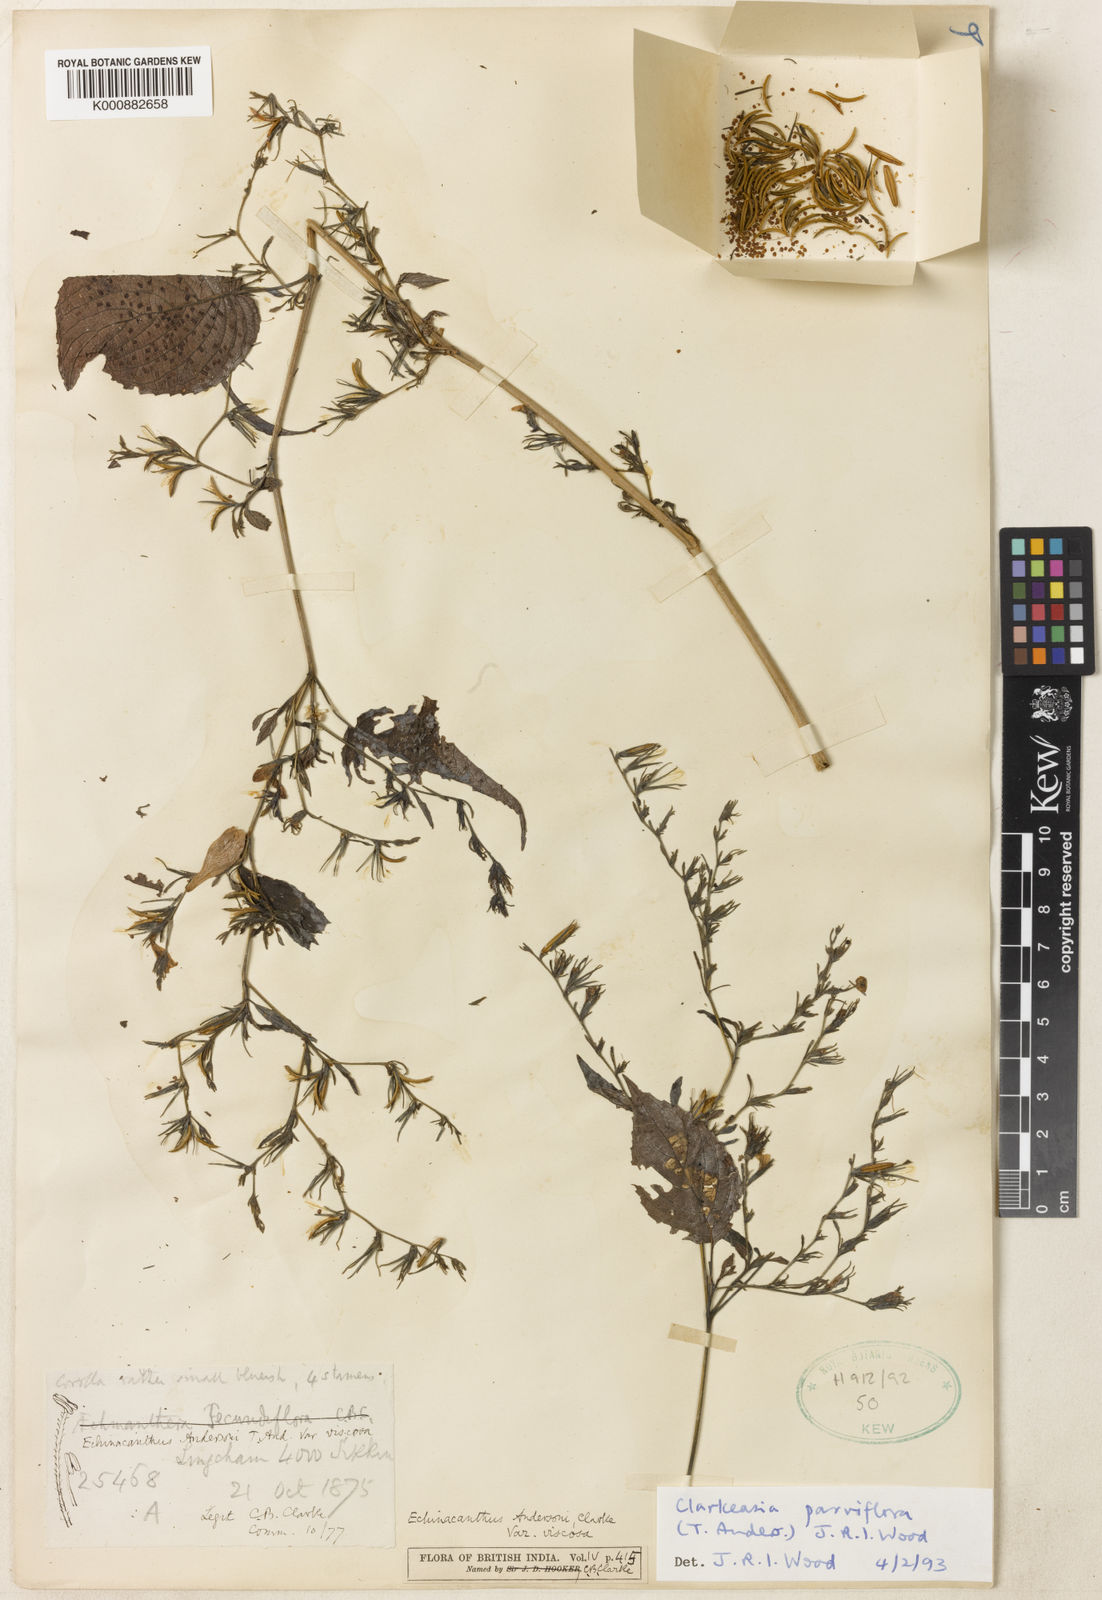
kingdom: Plantae
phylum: Tracheophyta
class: Magnoliopsida
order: Lamiales
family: Acanthaceae
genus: Strobilanthes
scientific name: Strobilanthes violifolia
